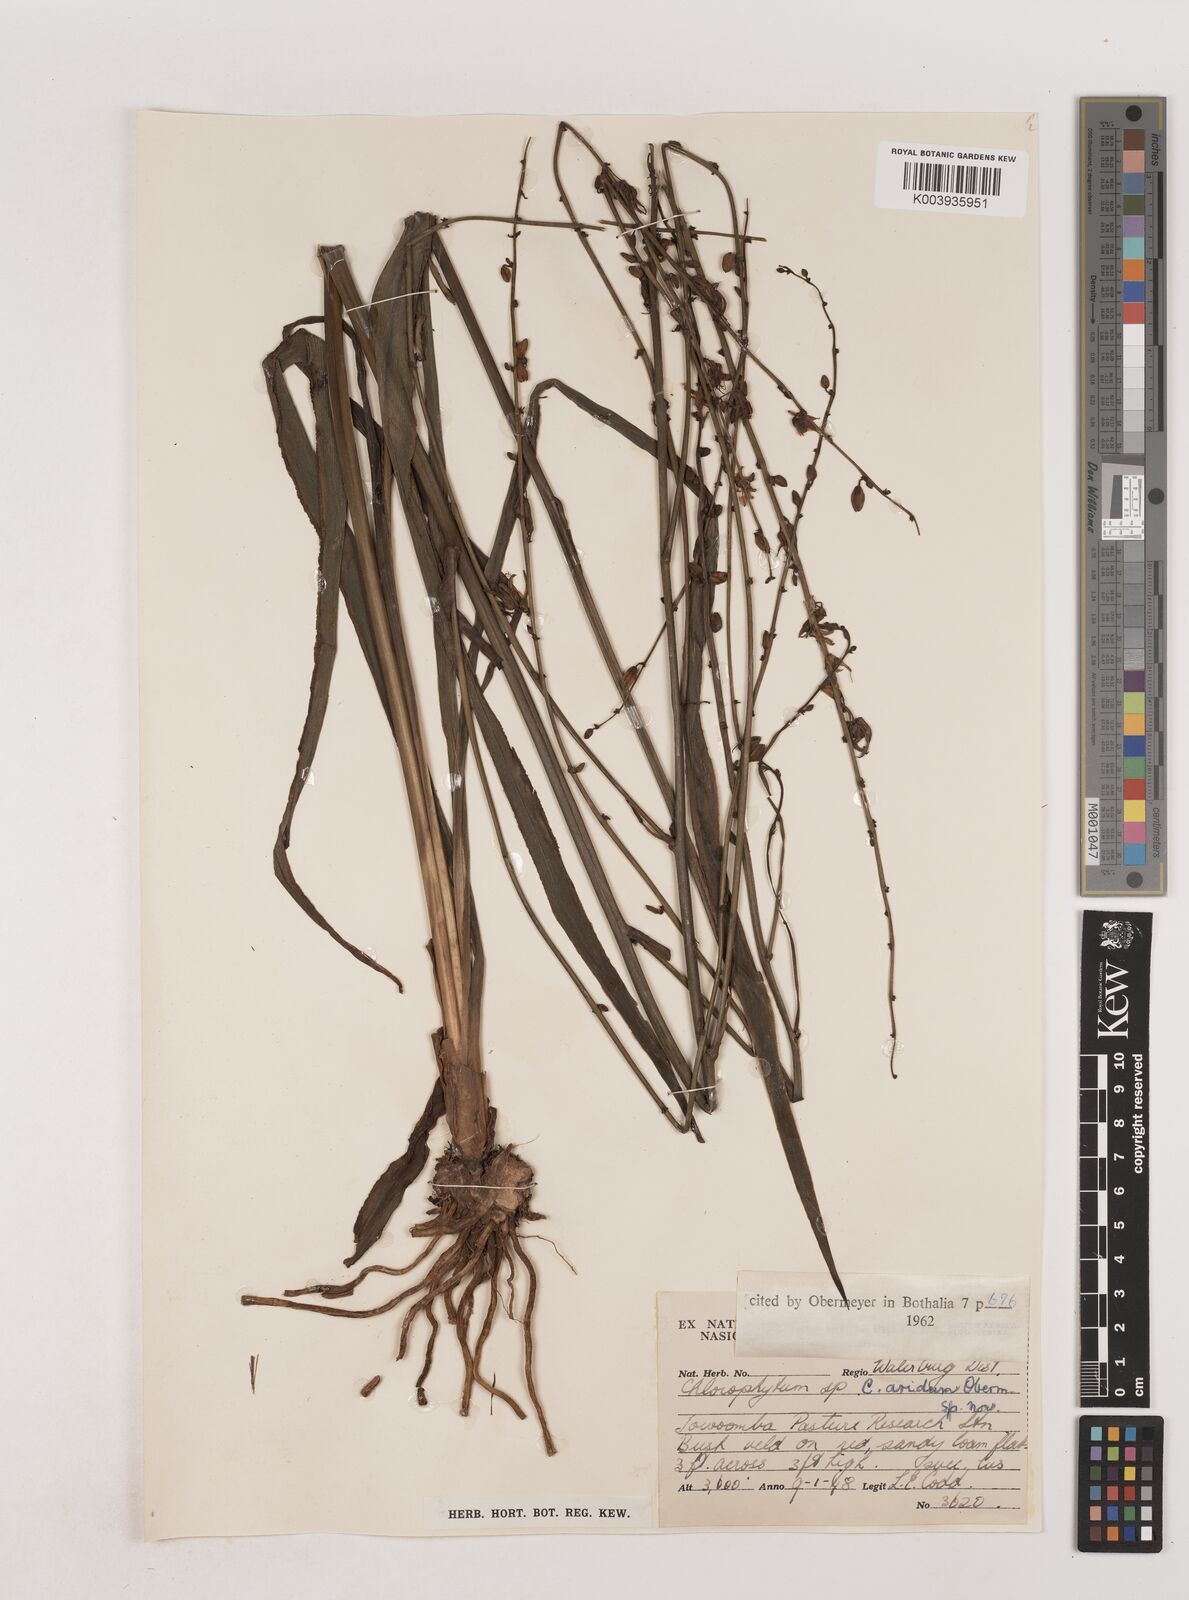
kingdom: Plantae
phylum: Tracheophyta
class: Liliopsida
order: Asparagales
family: Asparagaceae
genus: Chlorophytum
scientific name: Chlorophytum aridum
